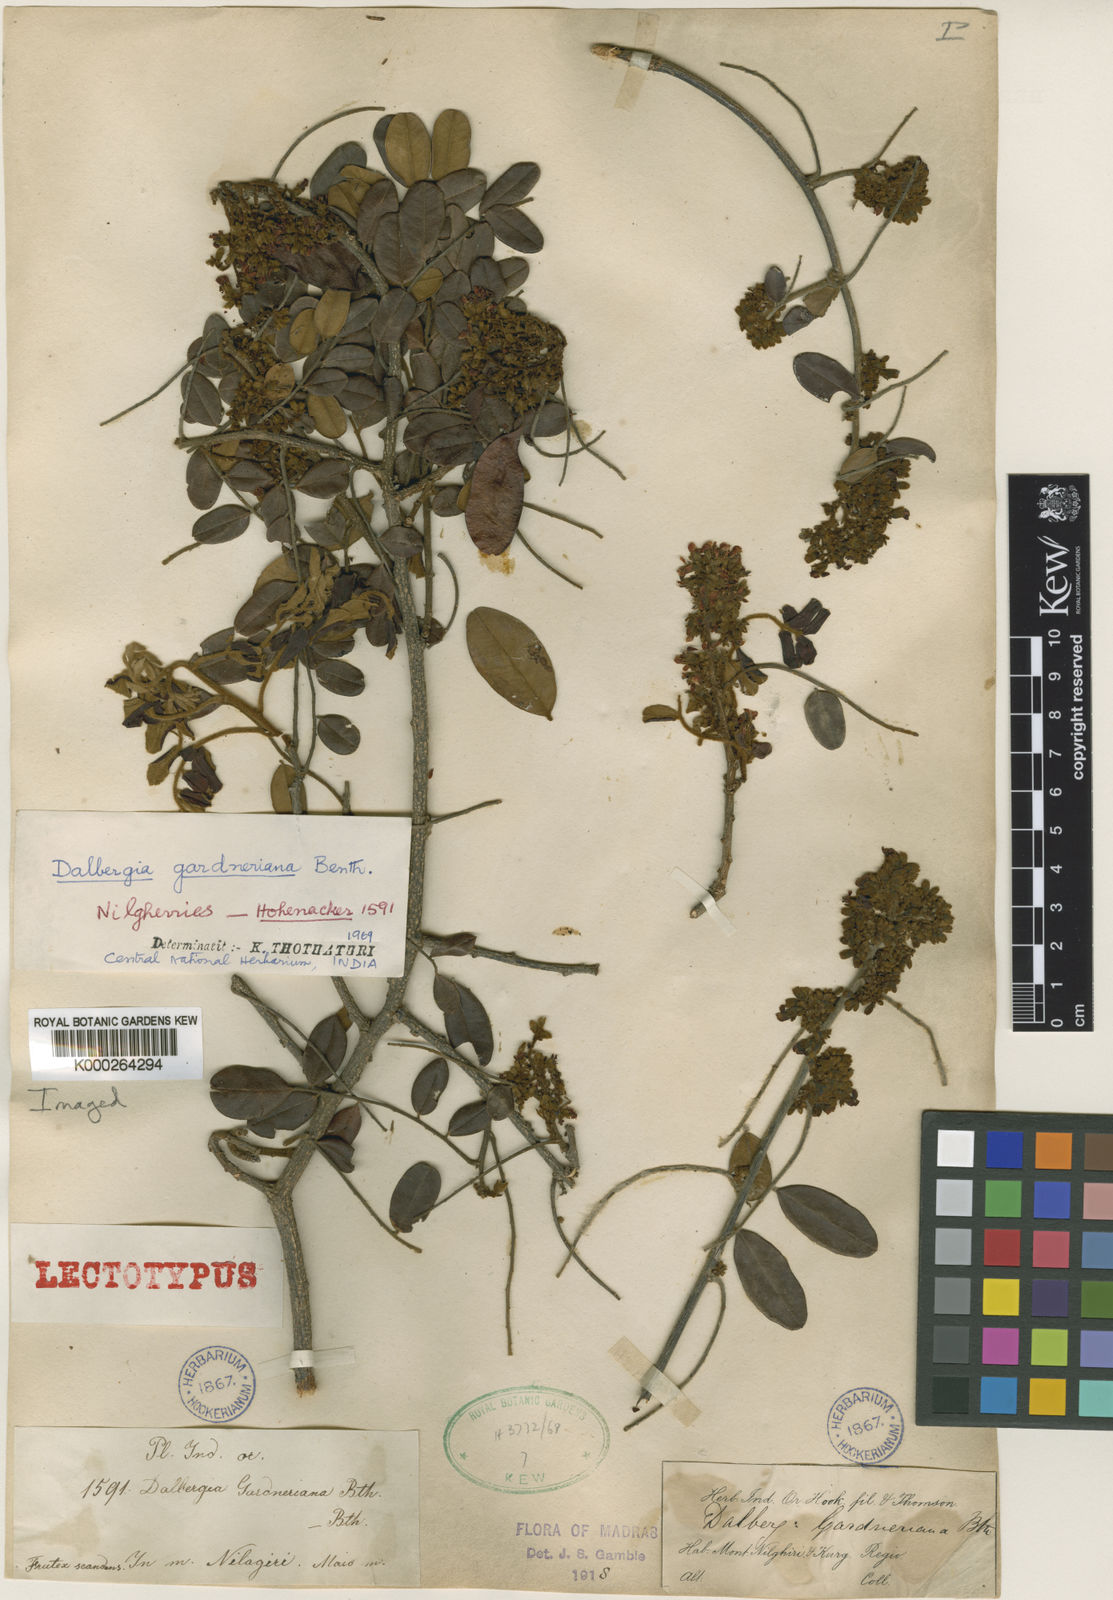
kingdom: Plantae
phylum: Tracheophyta
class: Magnoliopsida
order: Fabales
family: Fabaceae
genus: Dalbergia
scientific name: Dalbergia gardneriana
